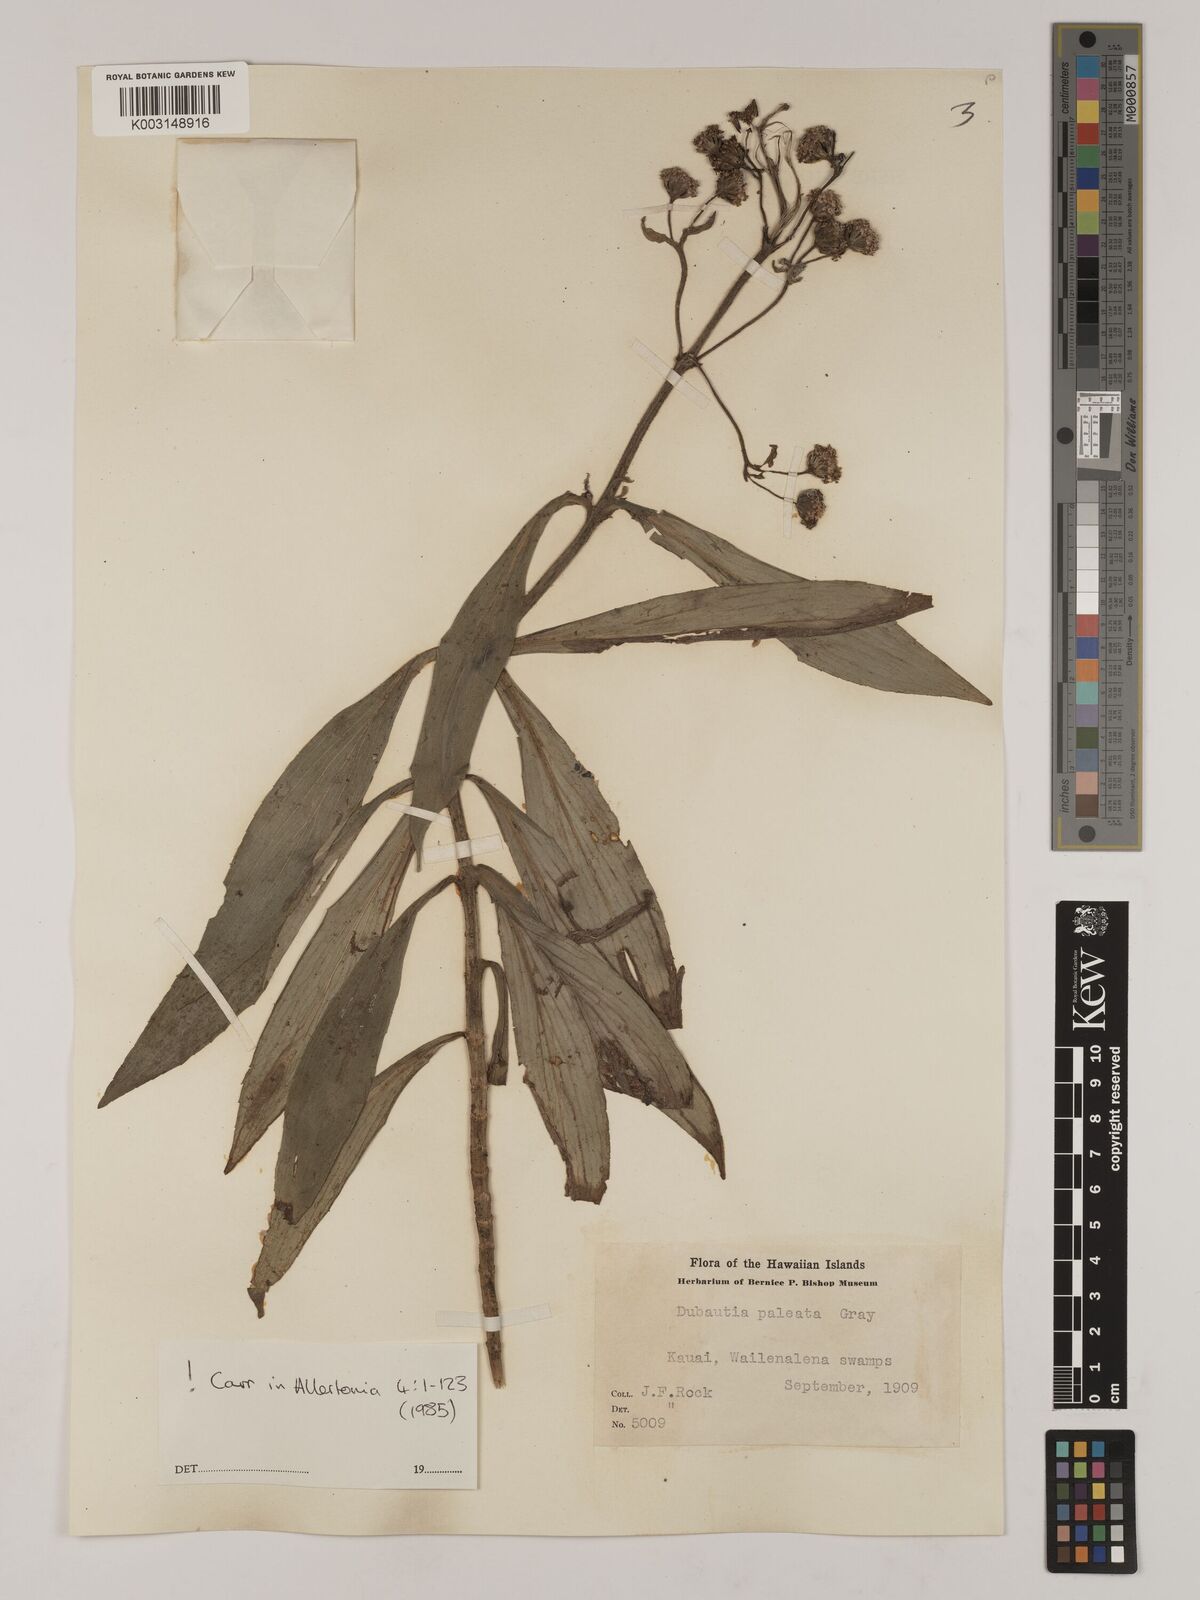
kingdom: Plantae
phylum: Tracheophyta
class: Magnoliopsida
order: Asterales
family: Asteraceae
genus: Dubautia
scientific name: Dubautia paleata
